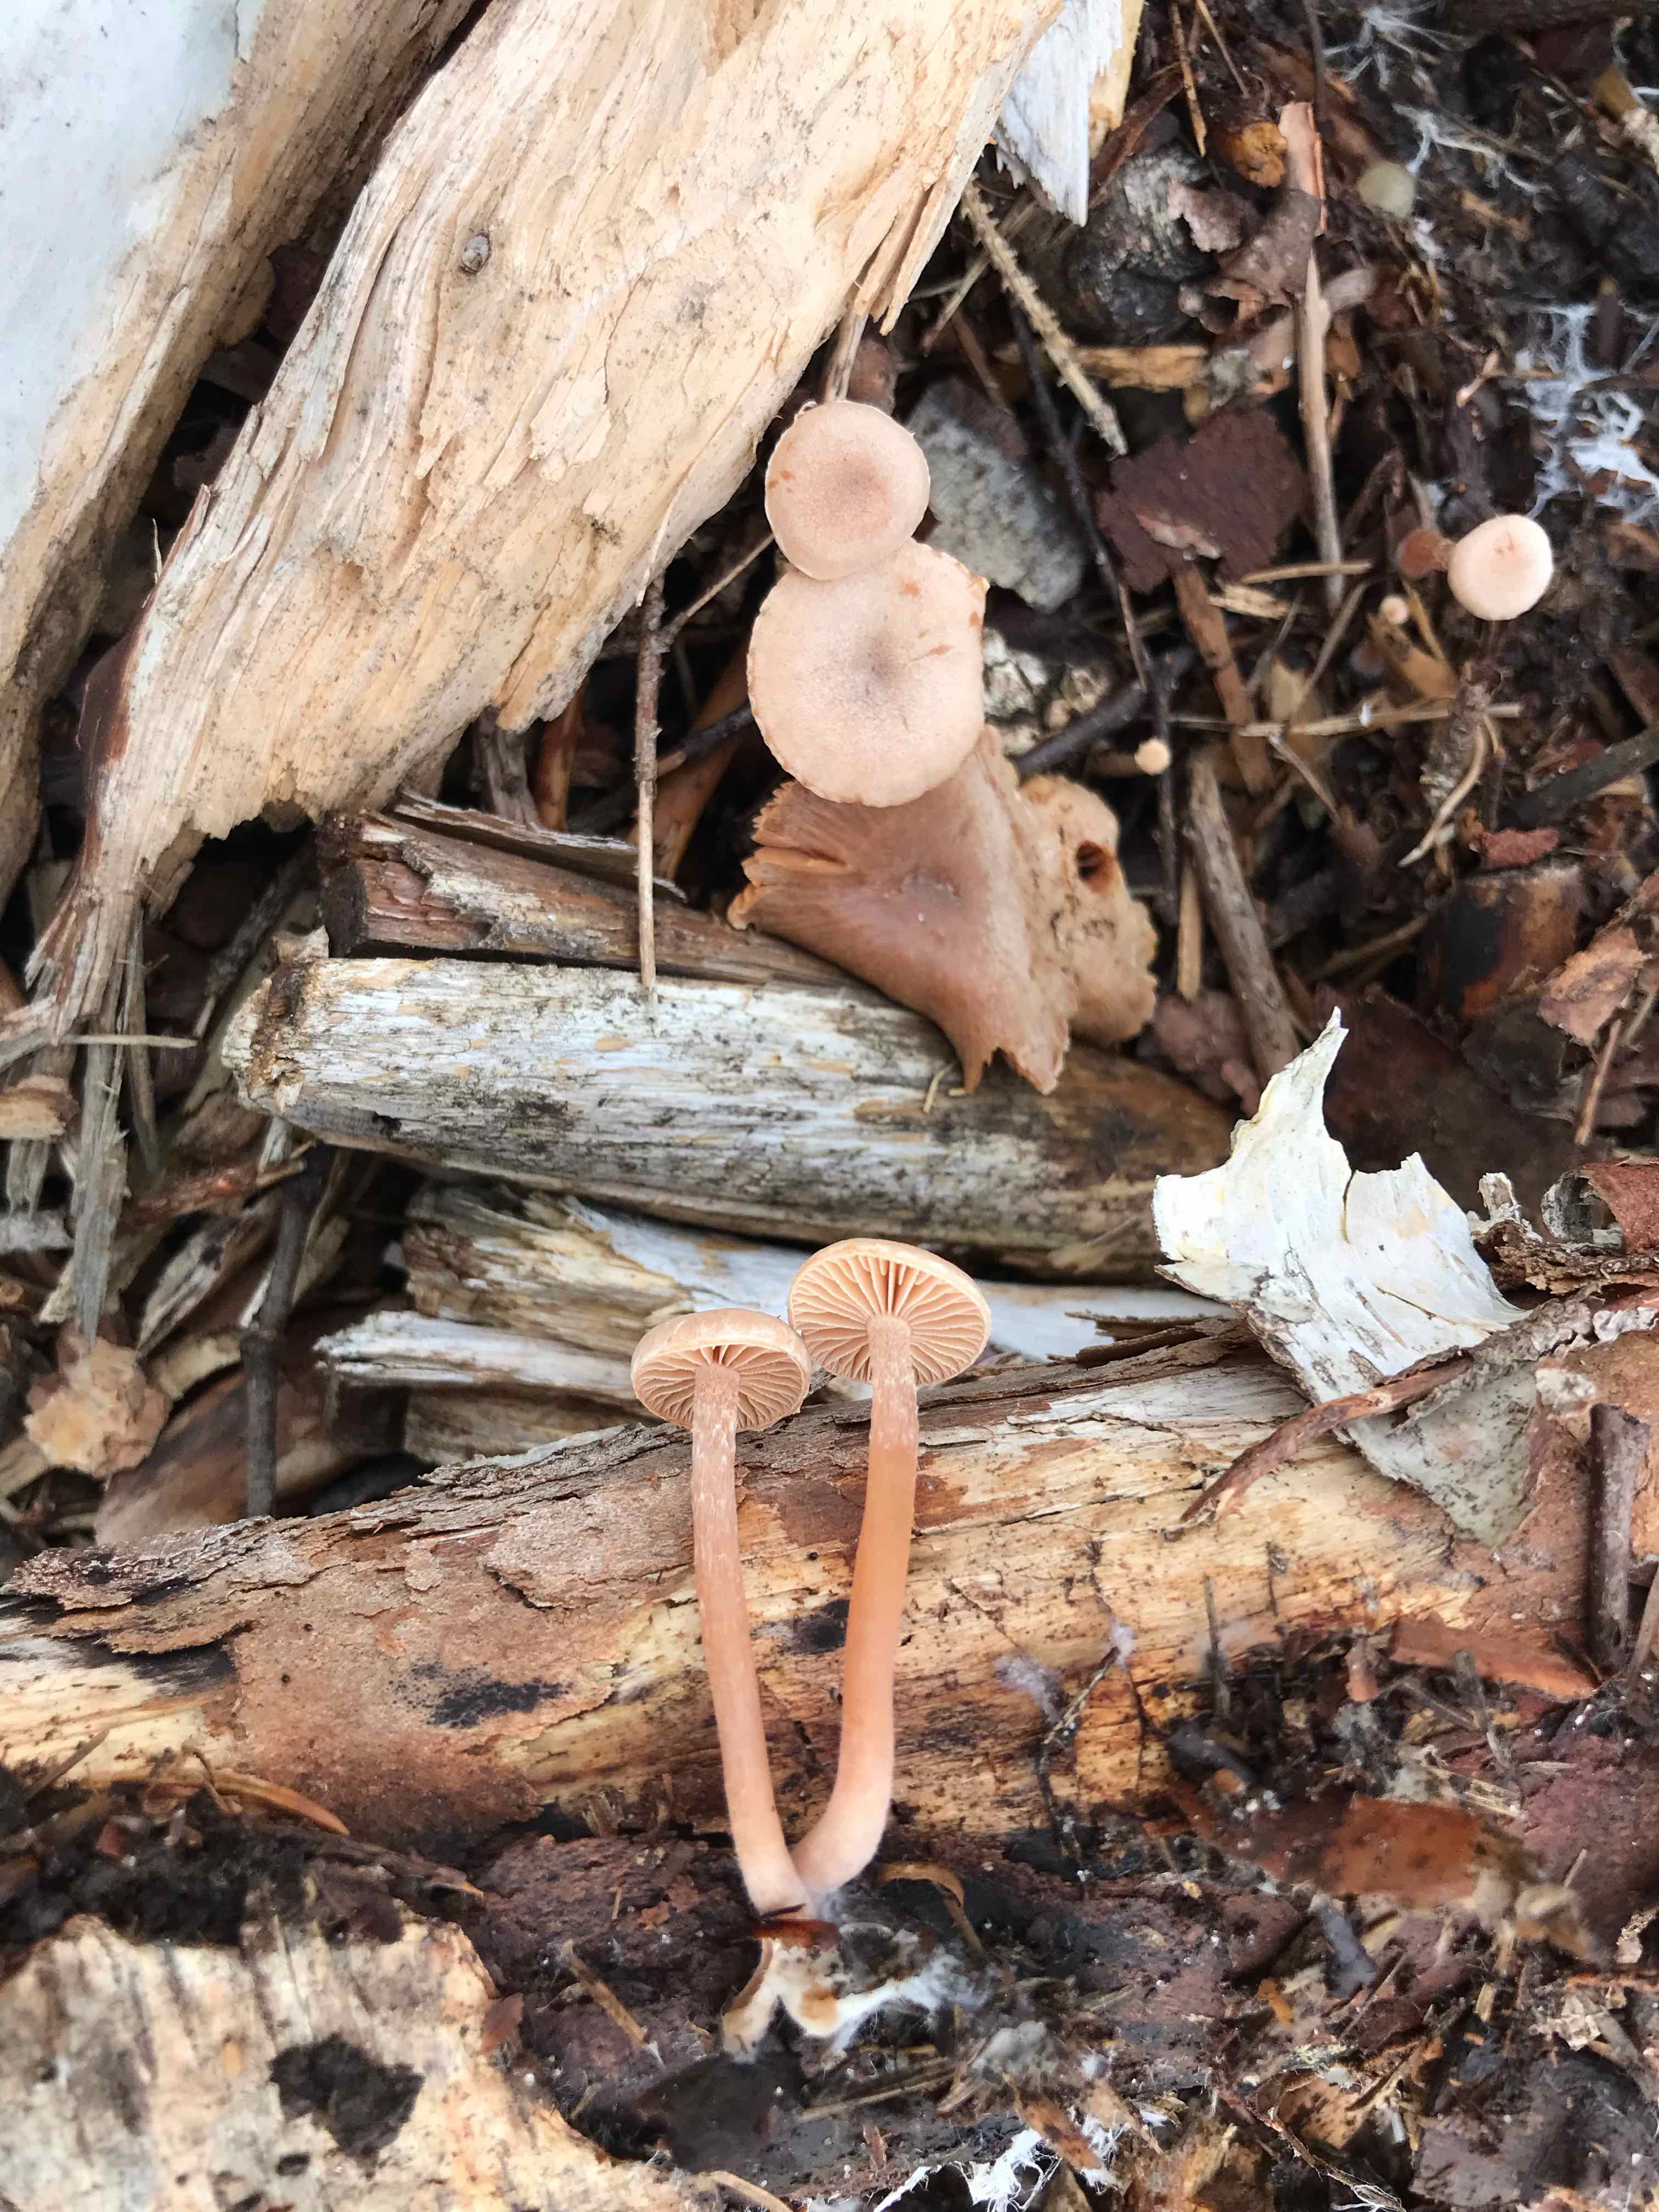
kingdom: Fungi
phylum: Basidiomycota
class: Agaricomycetes
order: Agaricales
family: Tubariaceae
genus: Tubaria
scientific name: Tubaria
